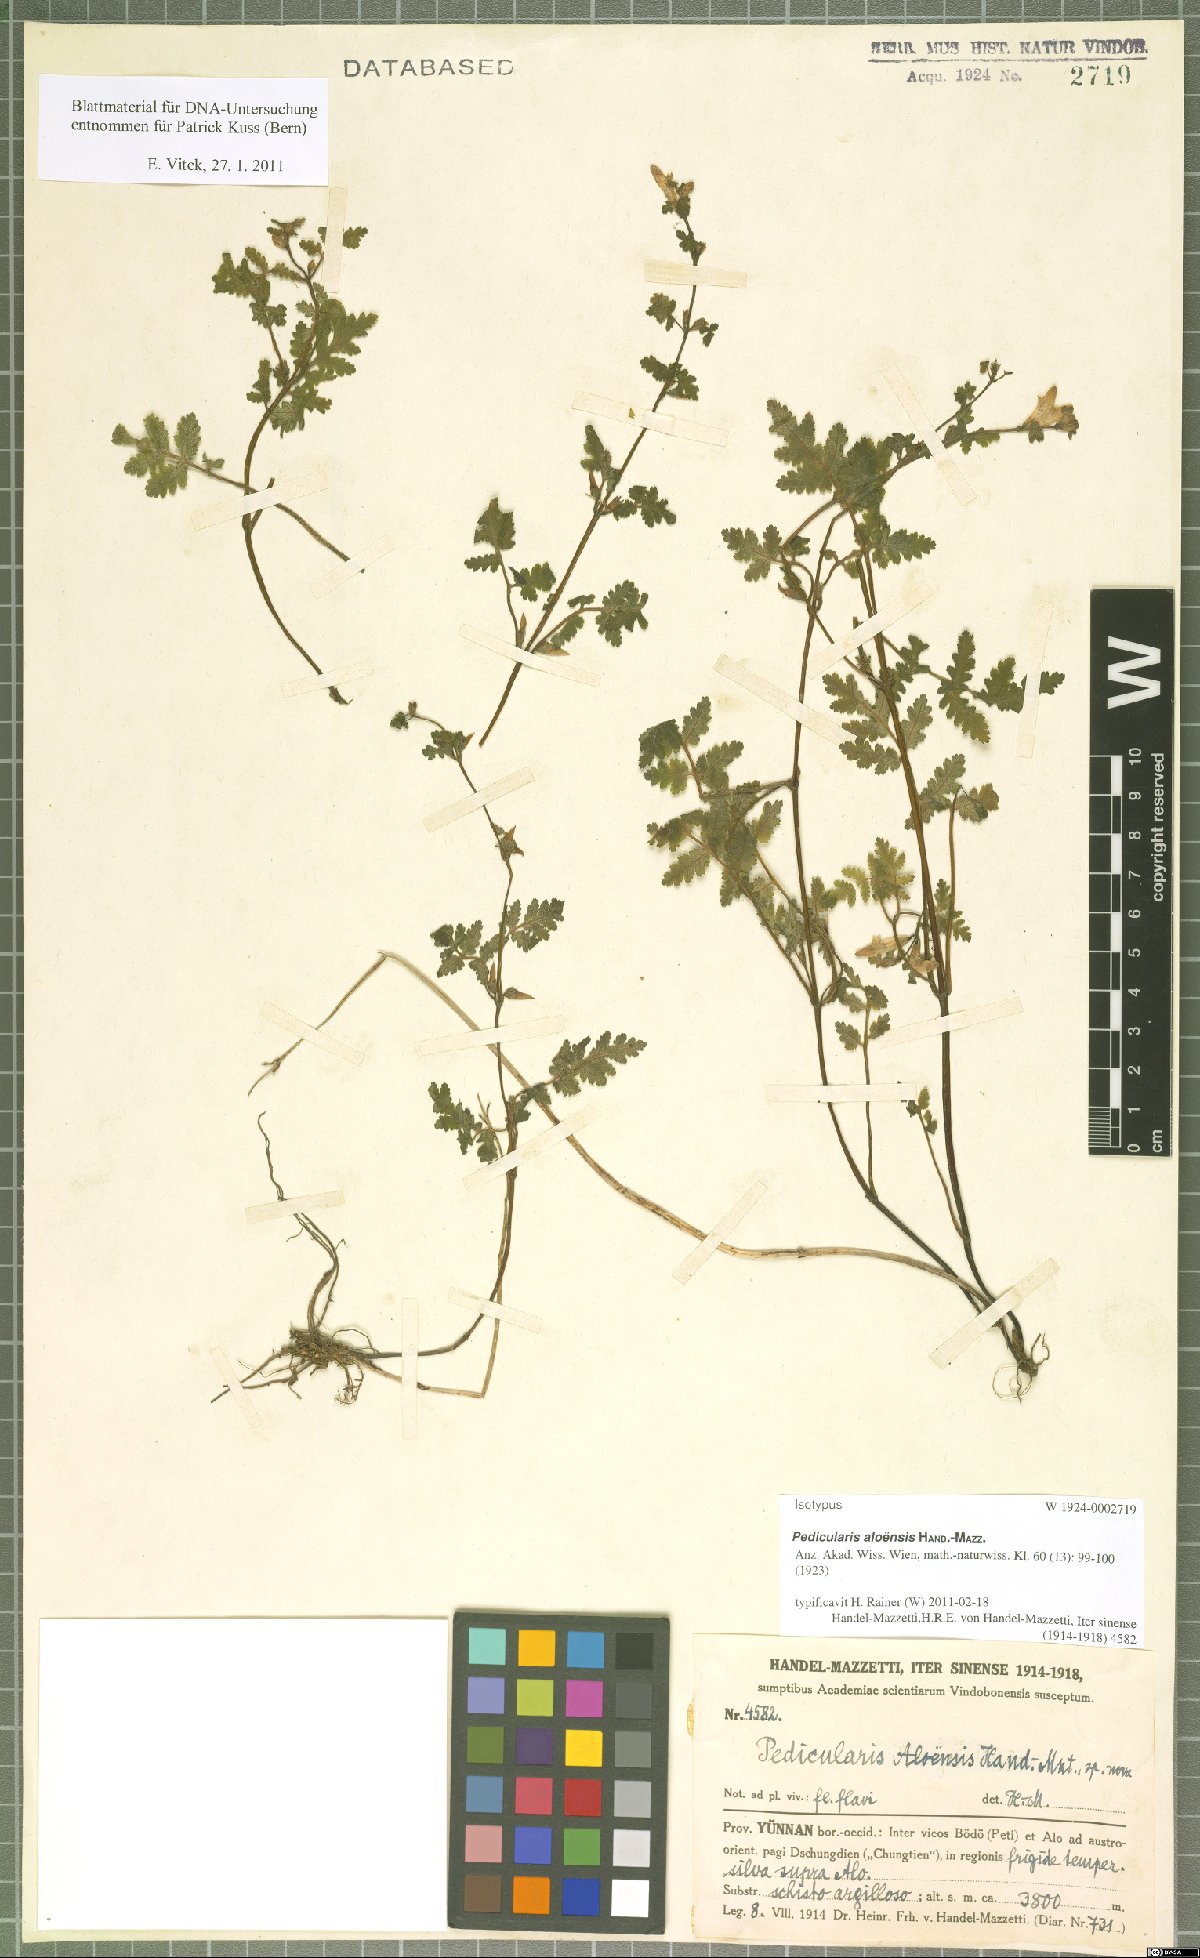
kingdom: Plantae
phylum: Tracheophyta
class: Magnoliopsida
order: Lamiales
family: Orobanchaceae
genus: Pedicularis
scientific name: Pedicularis aloensis
